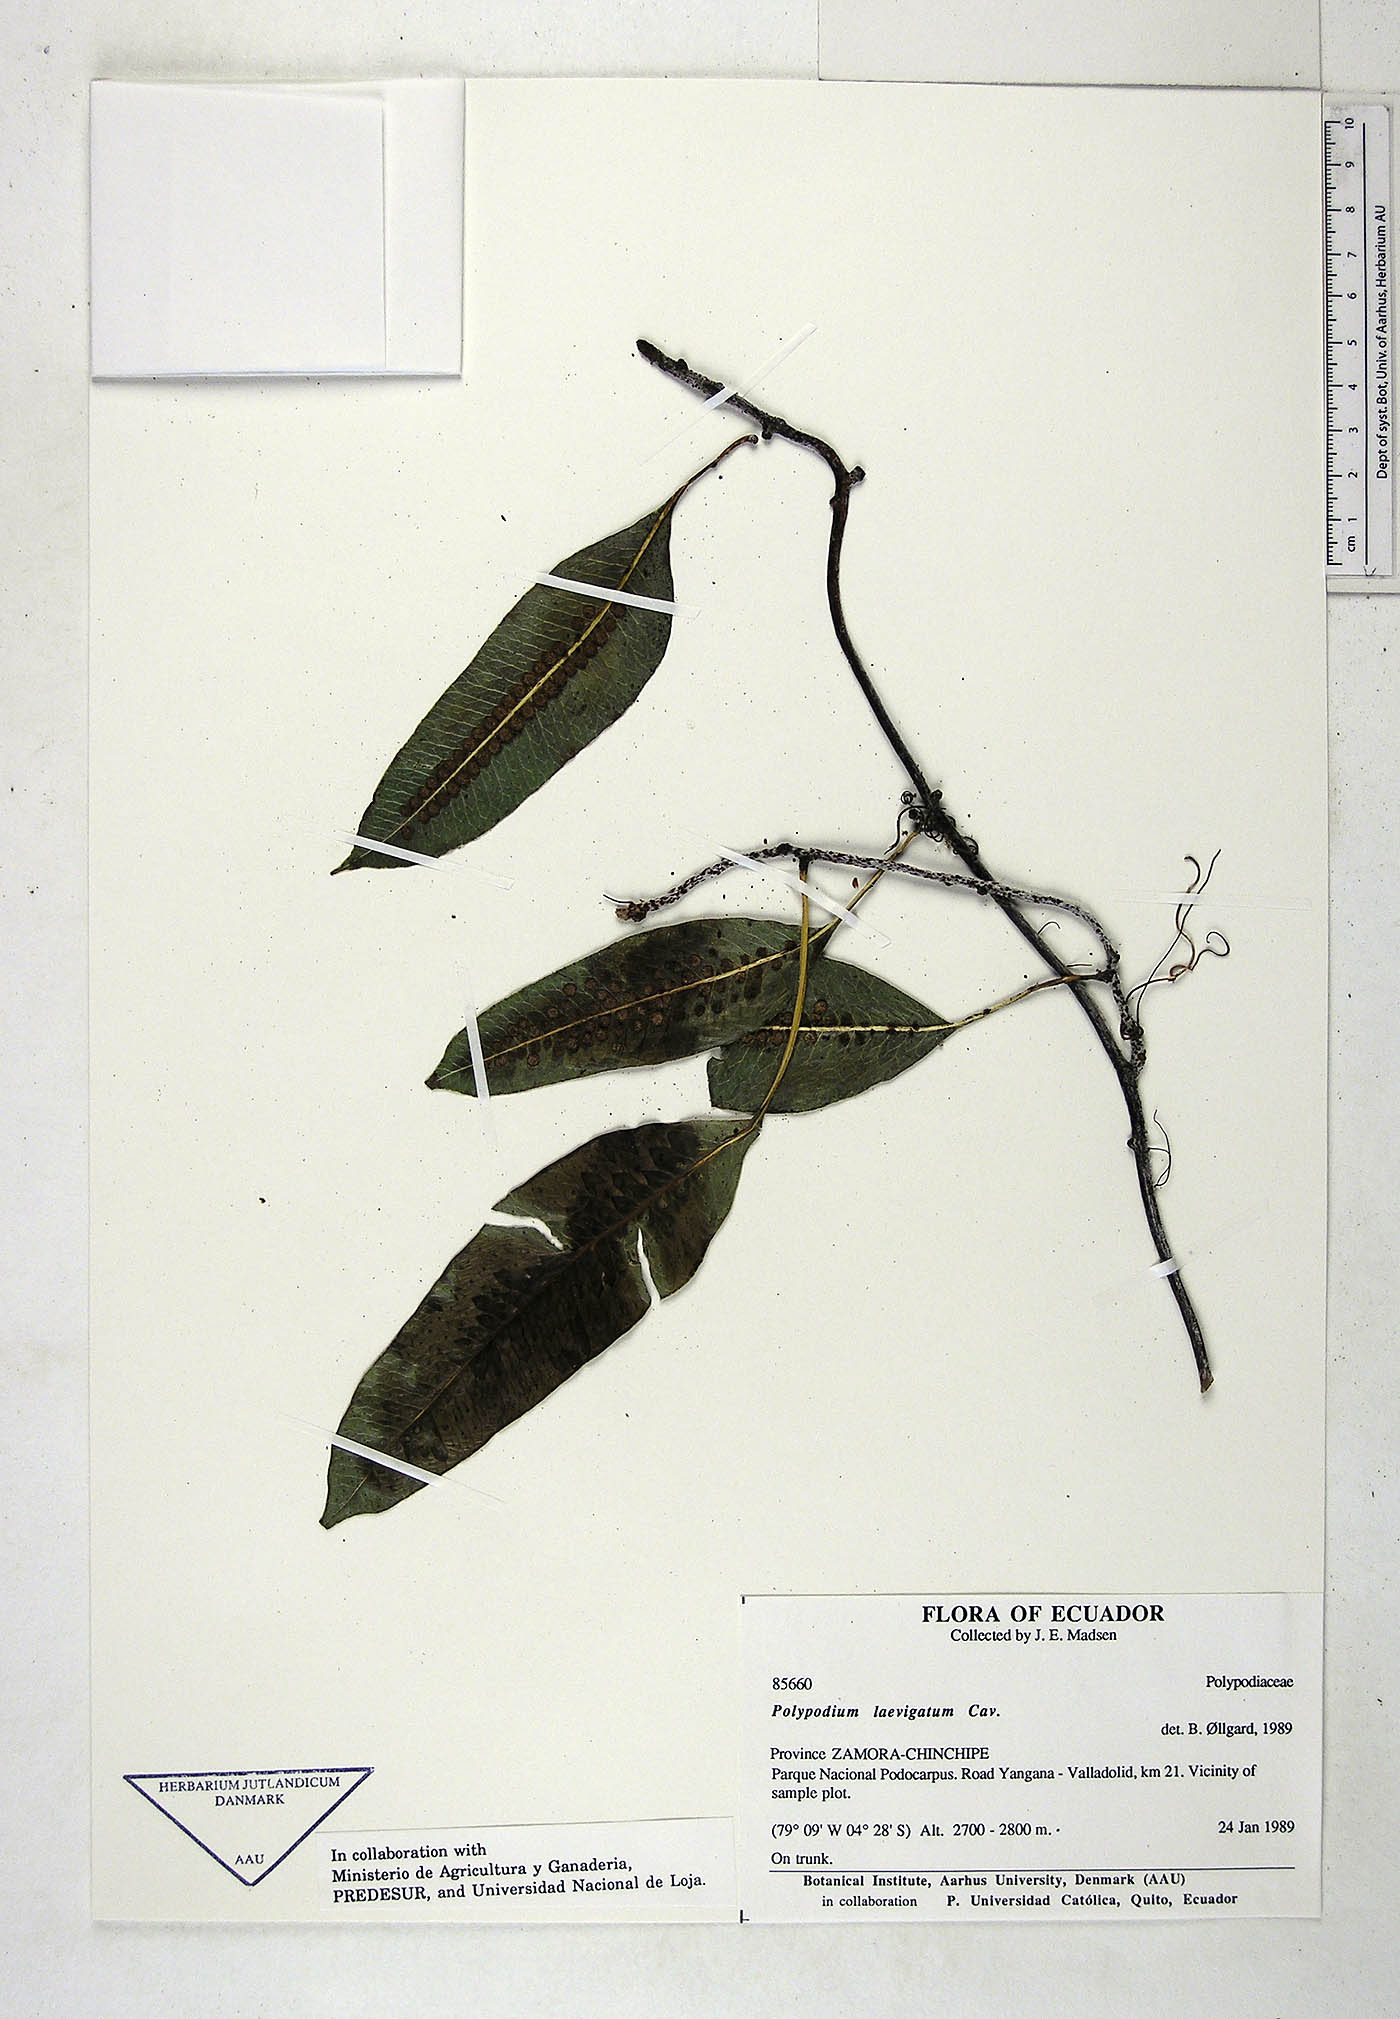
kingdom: Plantae
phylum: Tracheophyta
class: Polypodiopsida
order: Polypodiales
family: Polypodiaceae
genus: Serpocaulon
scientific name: Serpocaulon laevigatum
